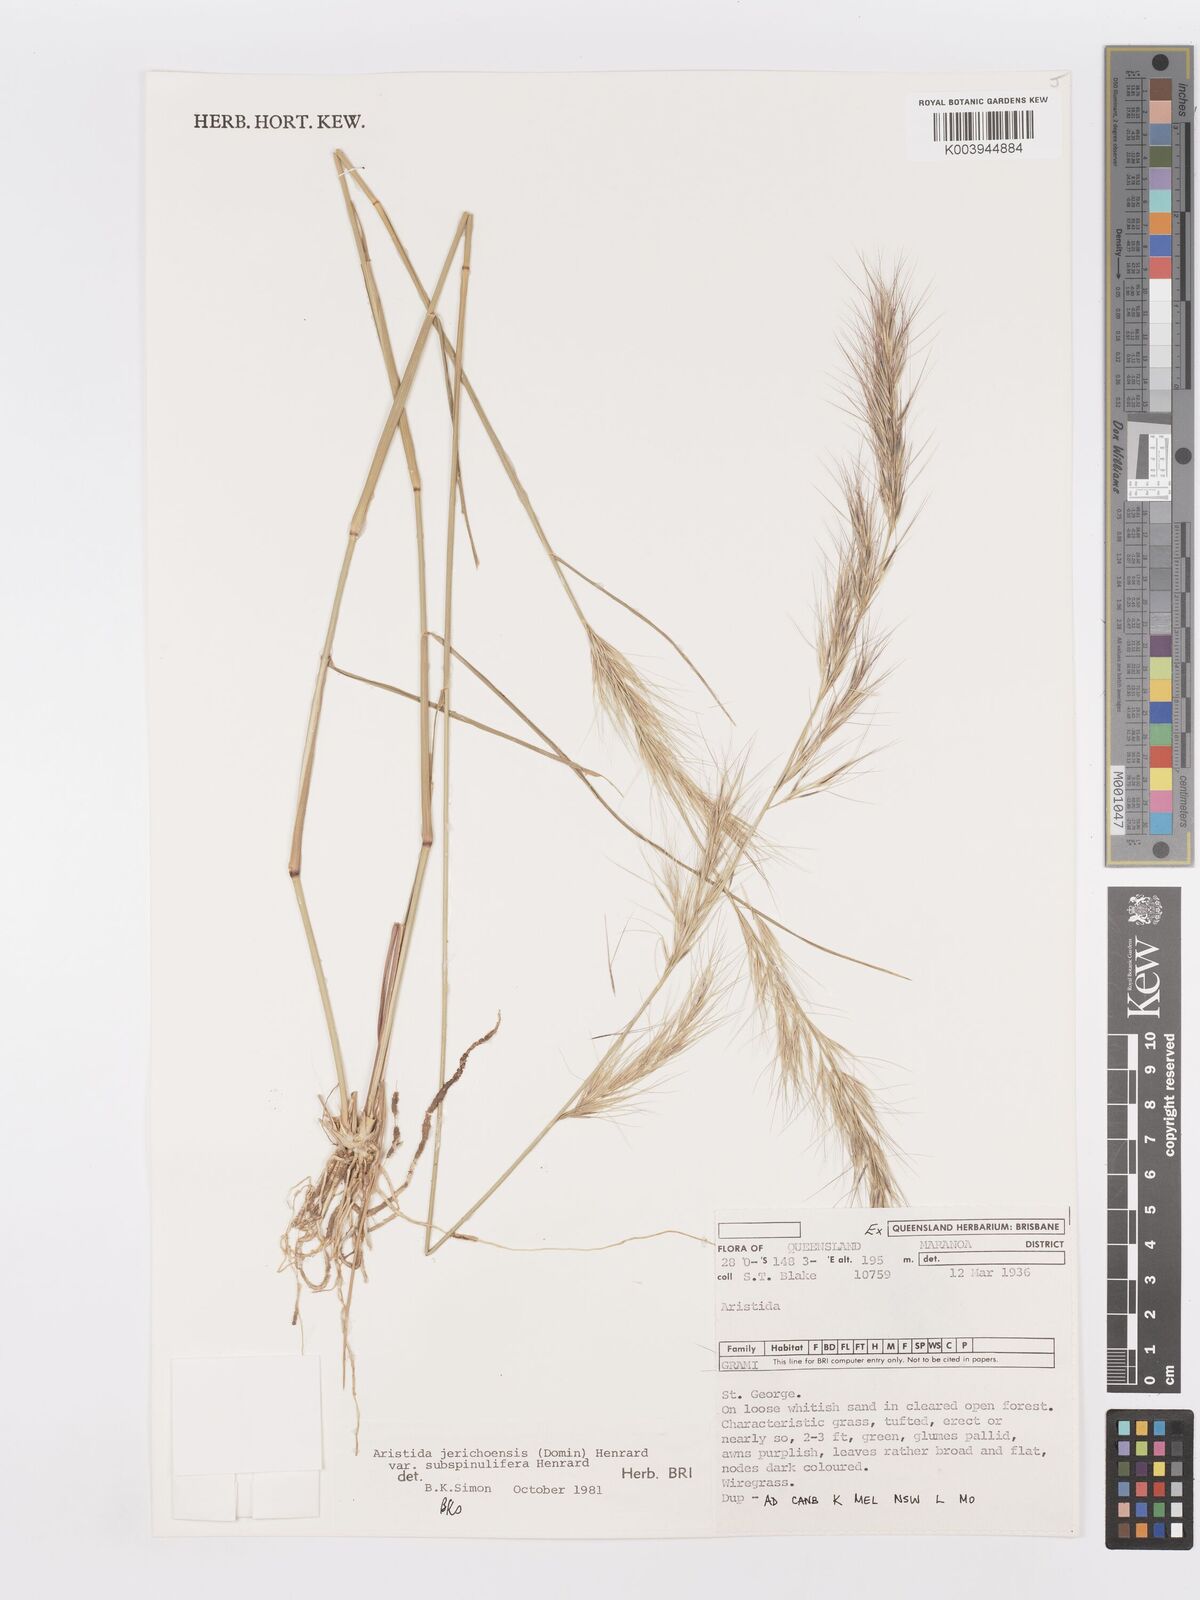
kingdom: Plantae
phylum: Tracheophyta
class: Liliopsida
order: Poales
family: Poaceae
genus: Aristida
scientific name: Aristida jerichoensis
